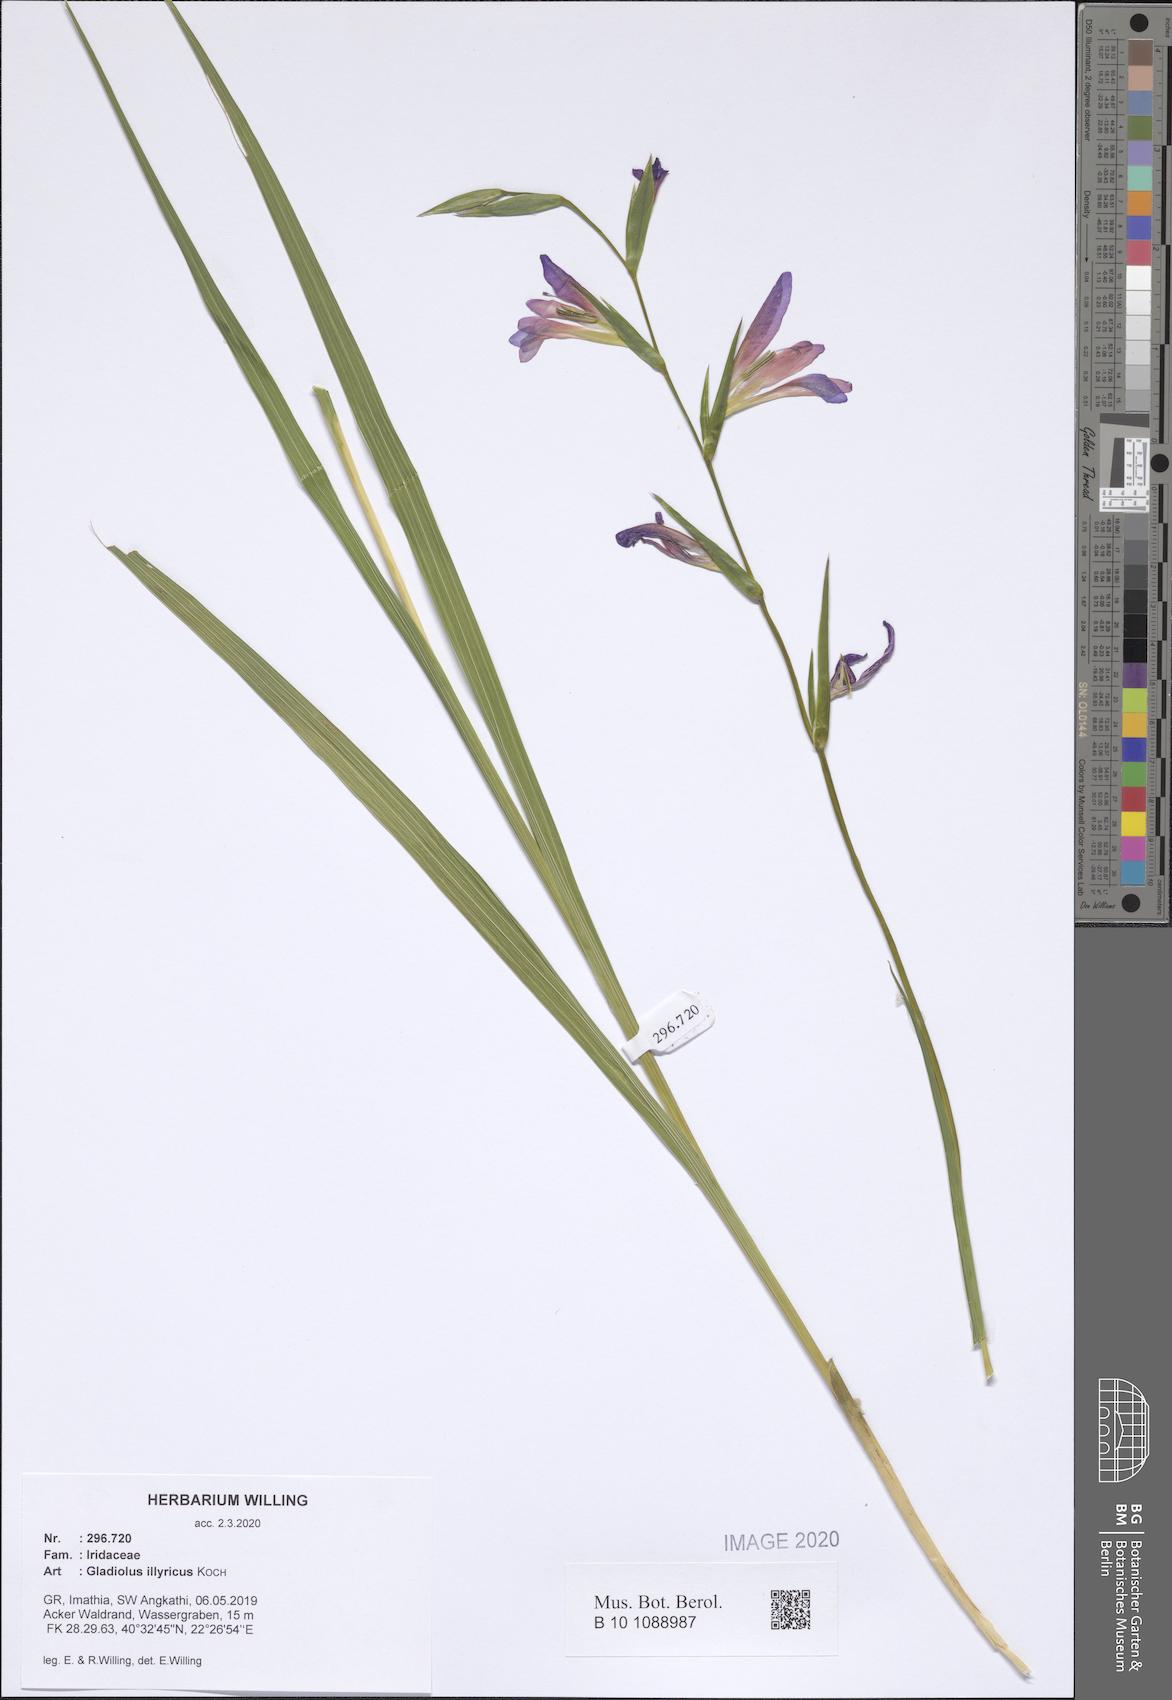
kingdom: Plantae
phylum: Tracheophyta
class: Liliopsida
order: Asparagales
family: Iridaceae
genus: Gladiolus
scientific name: Gladiolus illyricus
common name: Wild gladiolus
